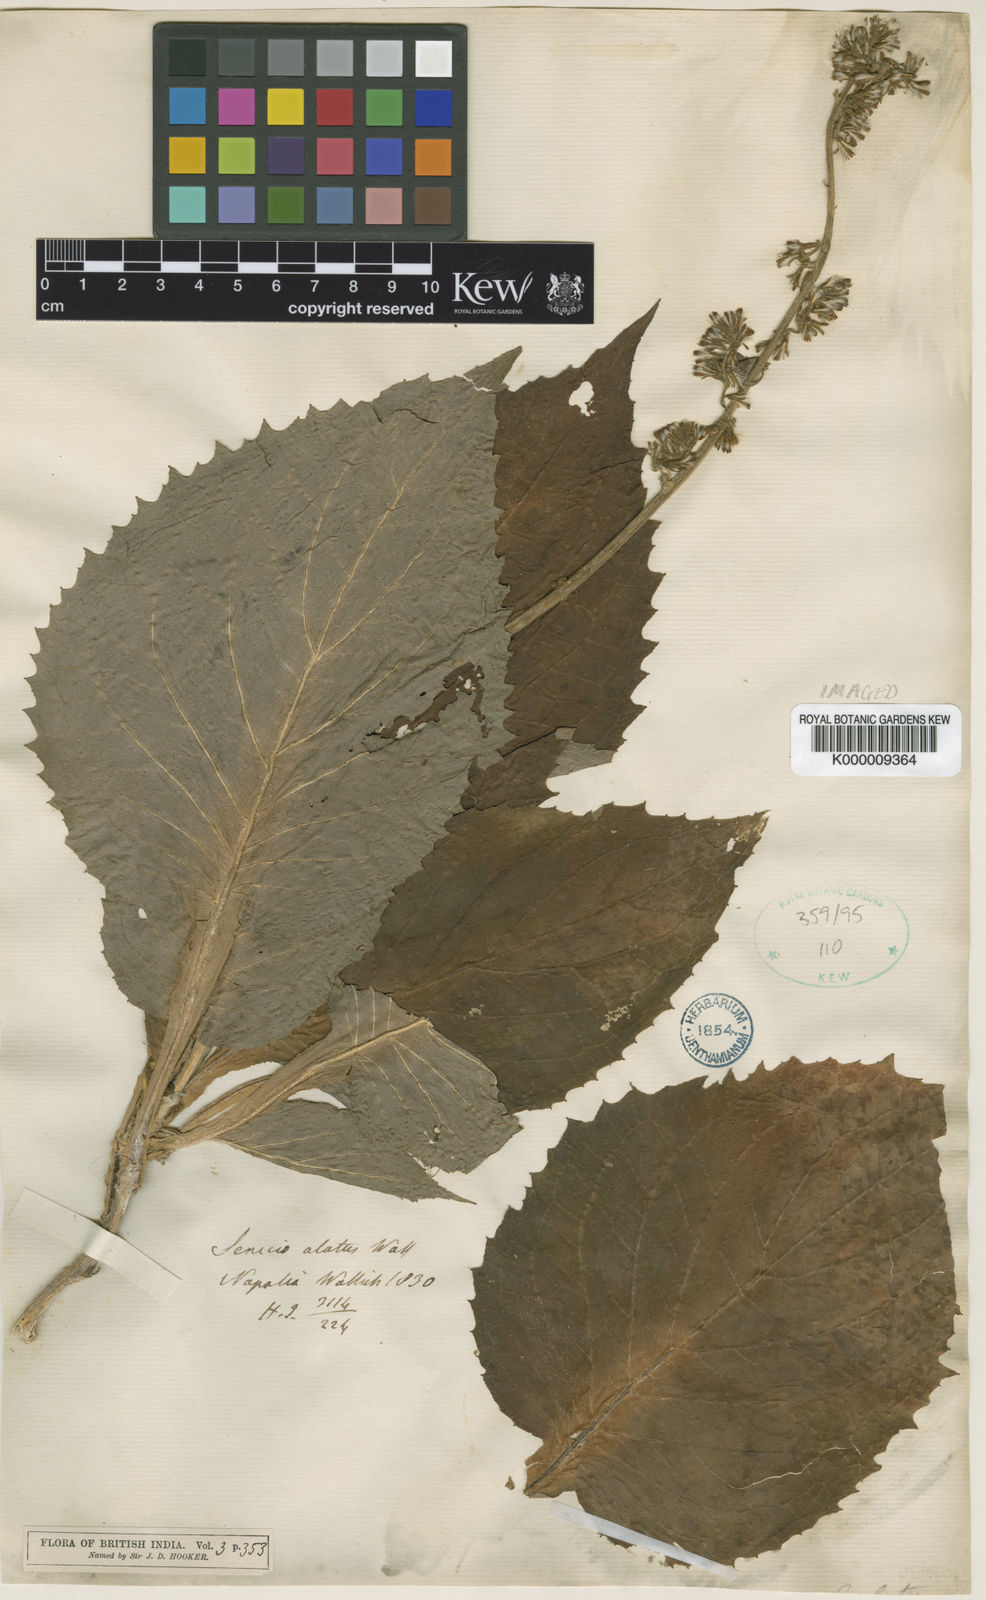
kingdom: Plantae
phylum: Tracheophyta
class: Magnoliopsida
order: Asterales
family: Asteraceae
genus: Synotis
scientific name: Synotis alata
